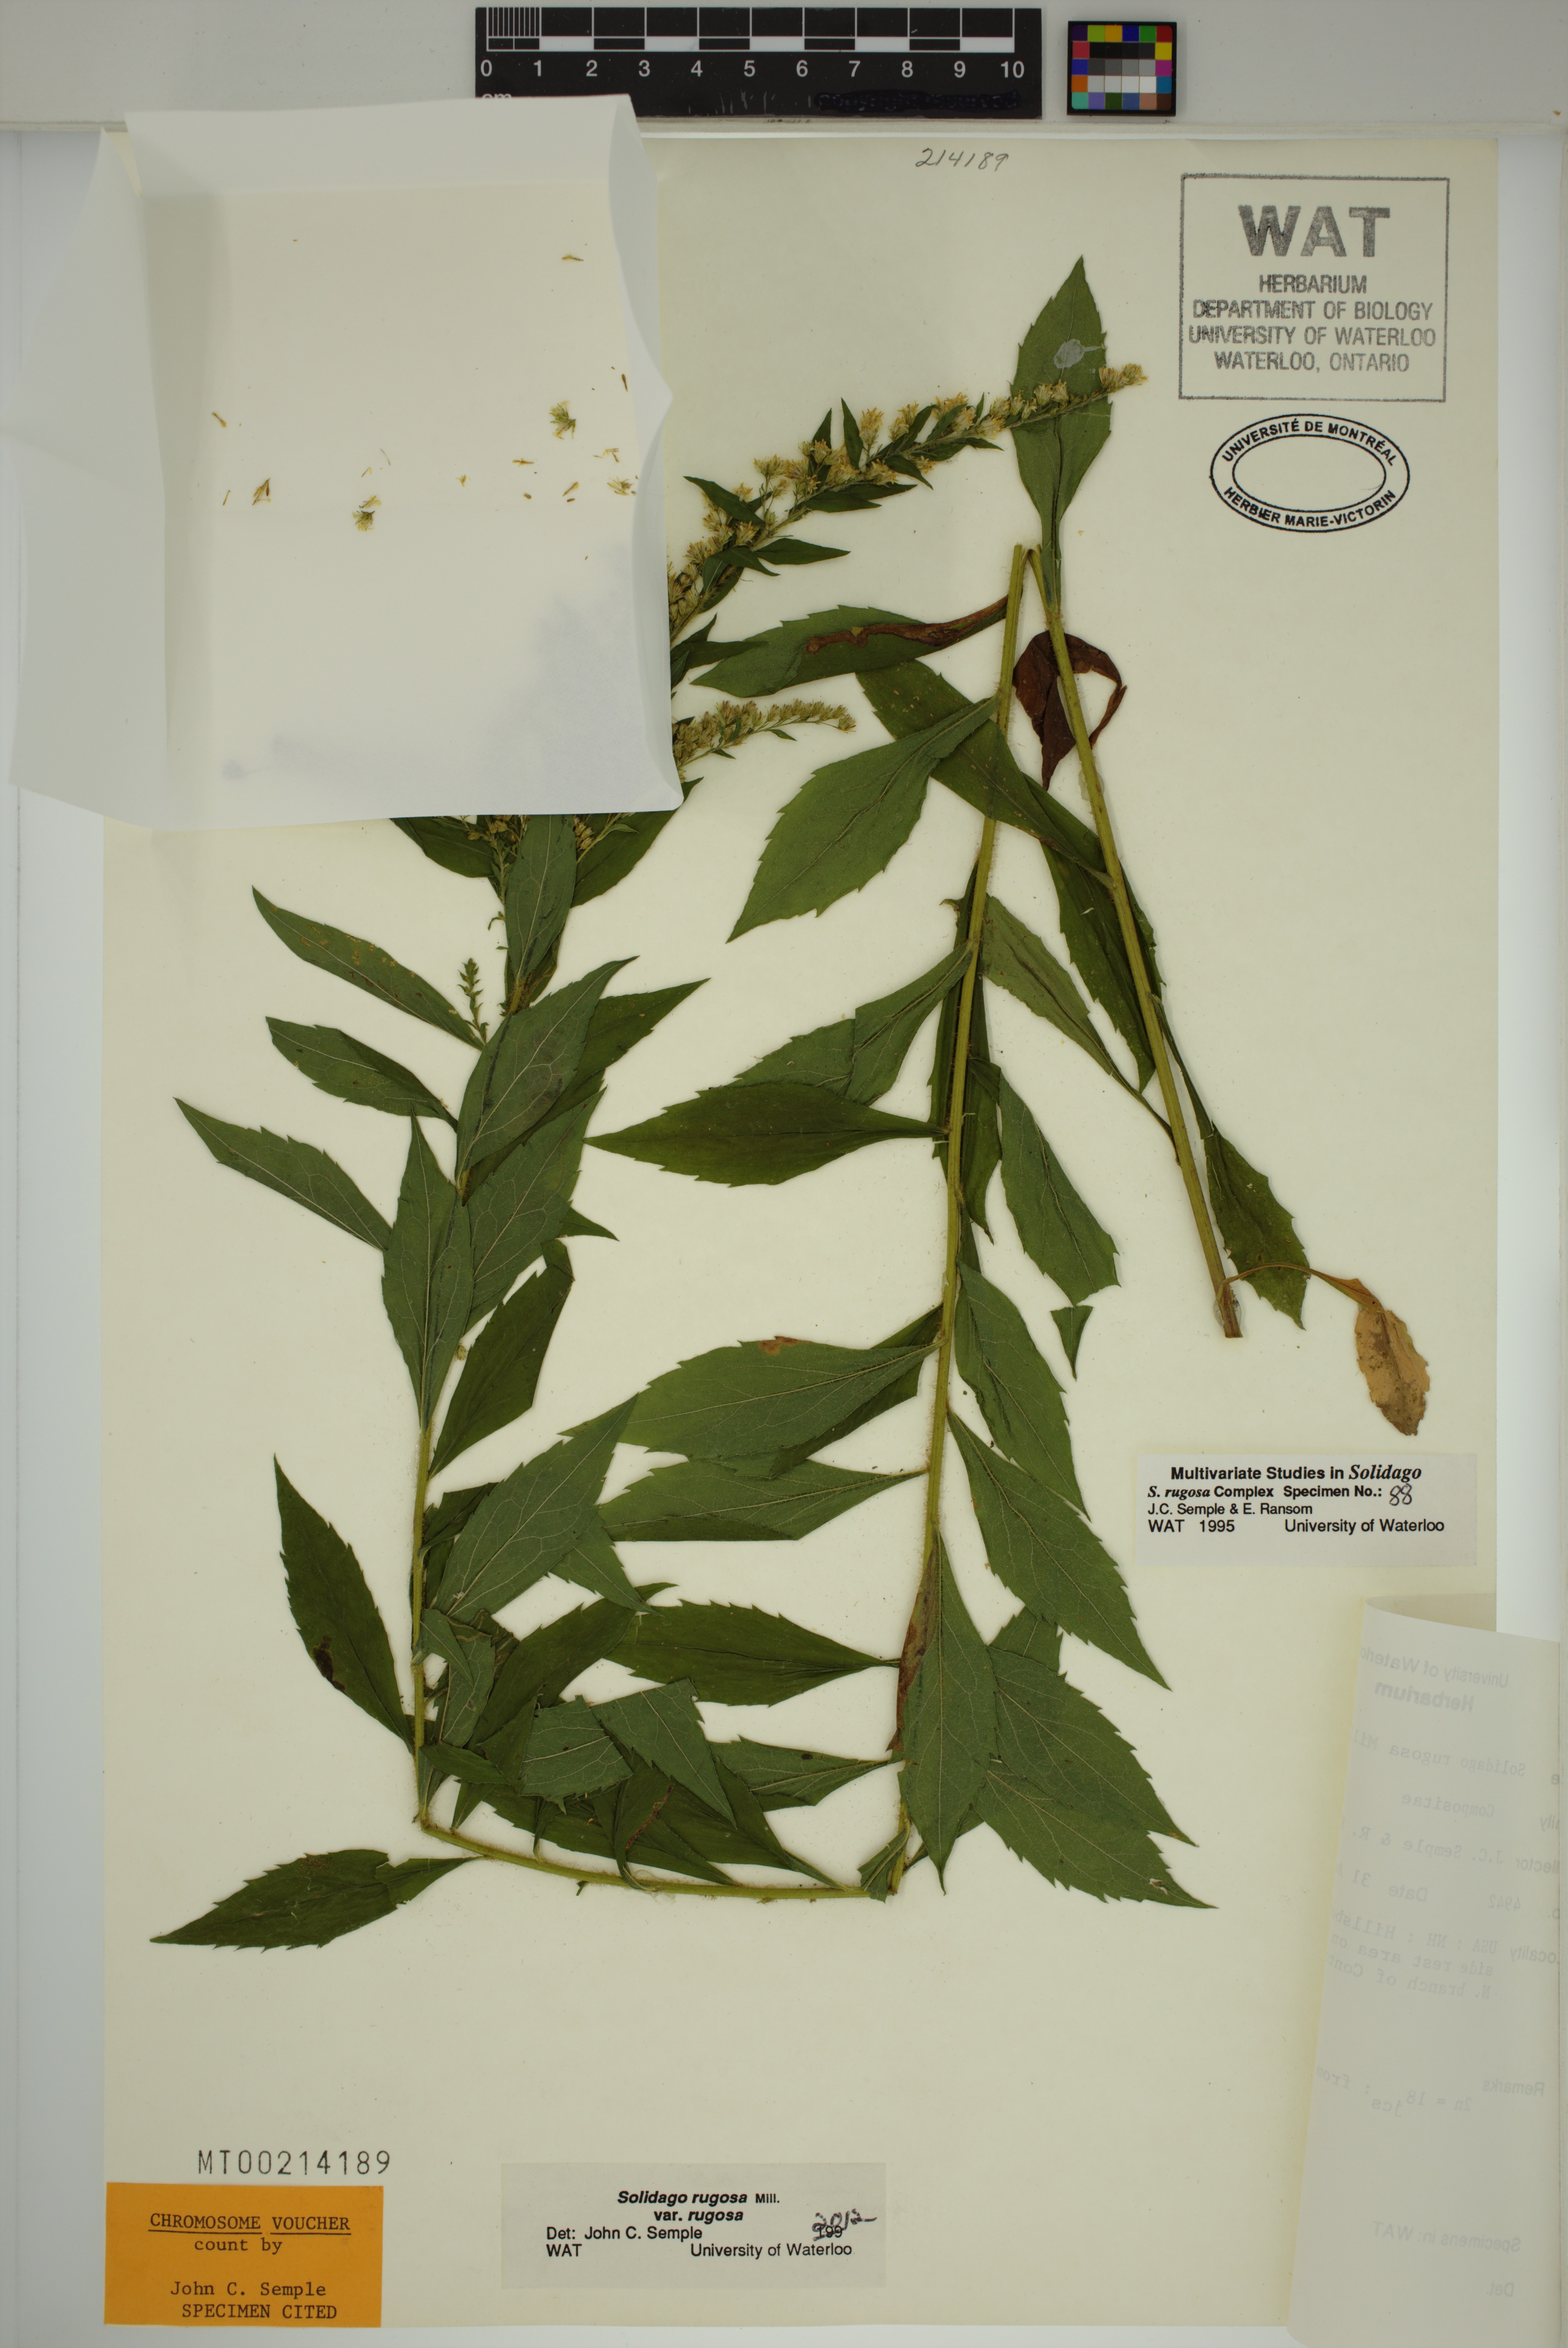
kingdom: Plantae
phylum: Tracheophyta
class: Magnoliopsida
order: Asterales
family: Asteraceae
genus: Solidago
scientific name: Solidago rugosa
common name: Rough-stemmed goldenrod
